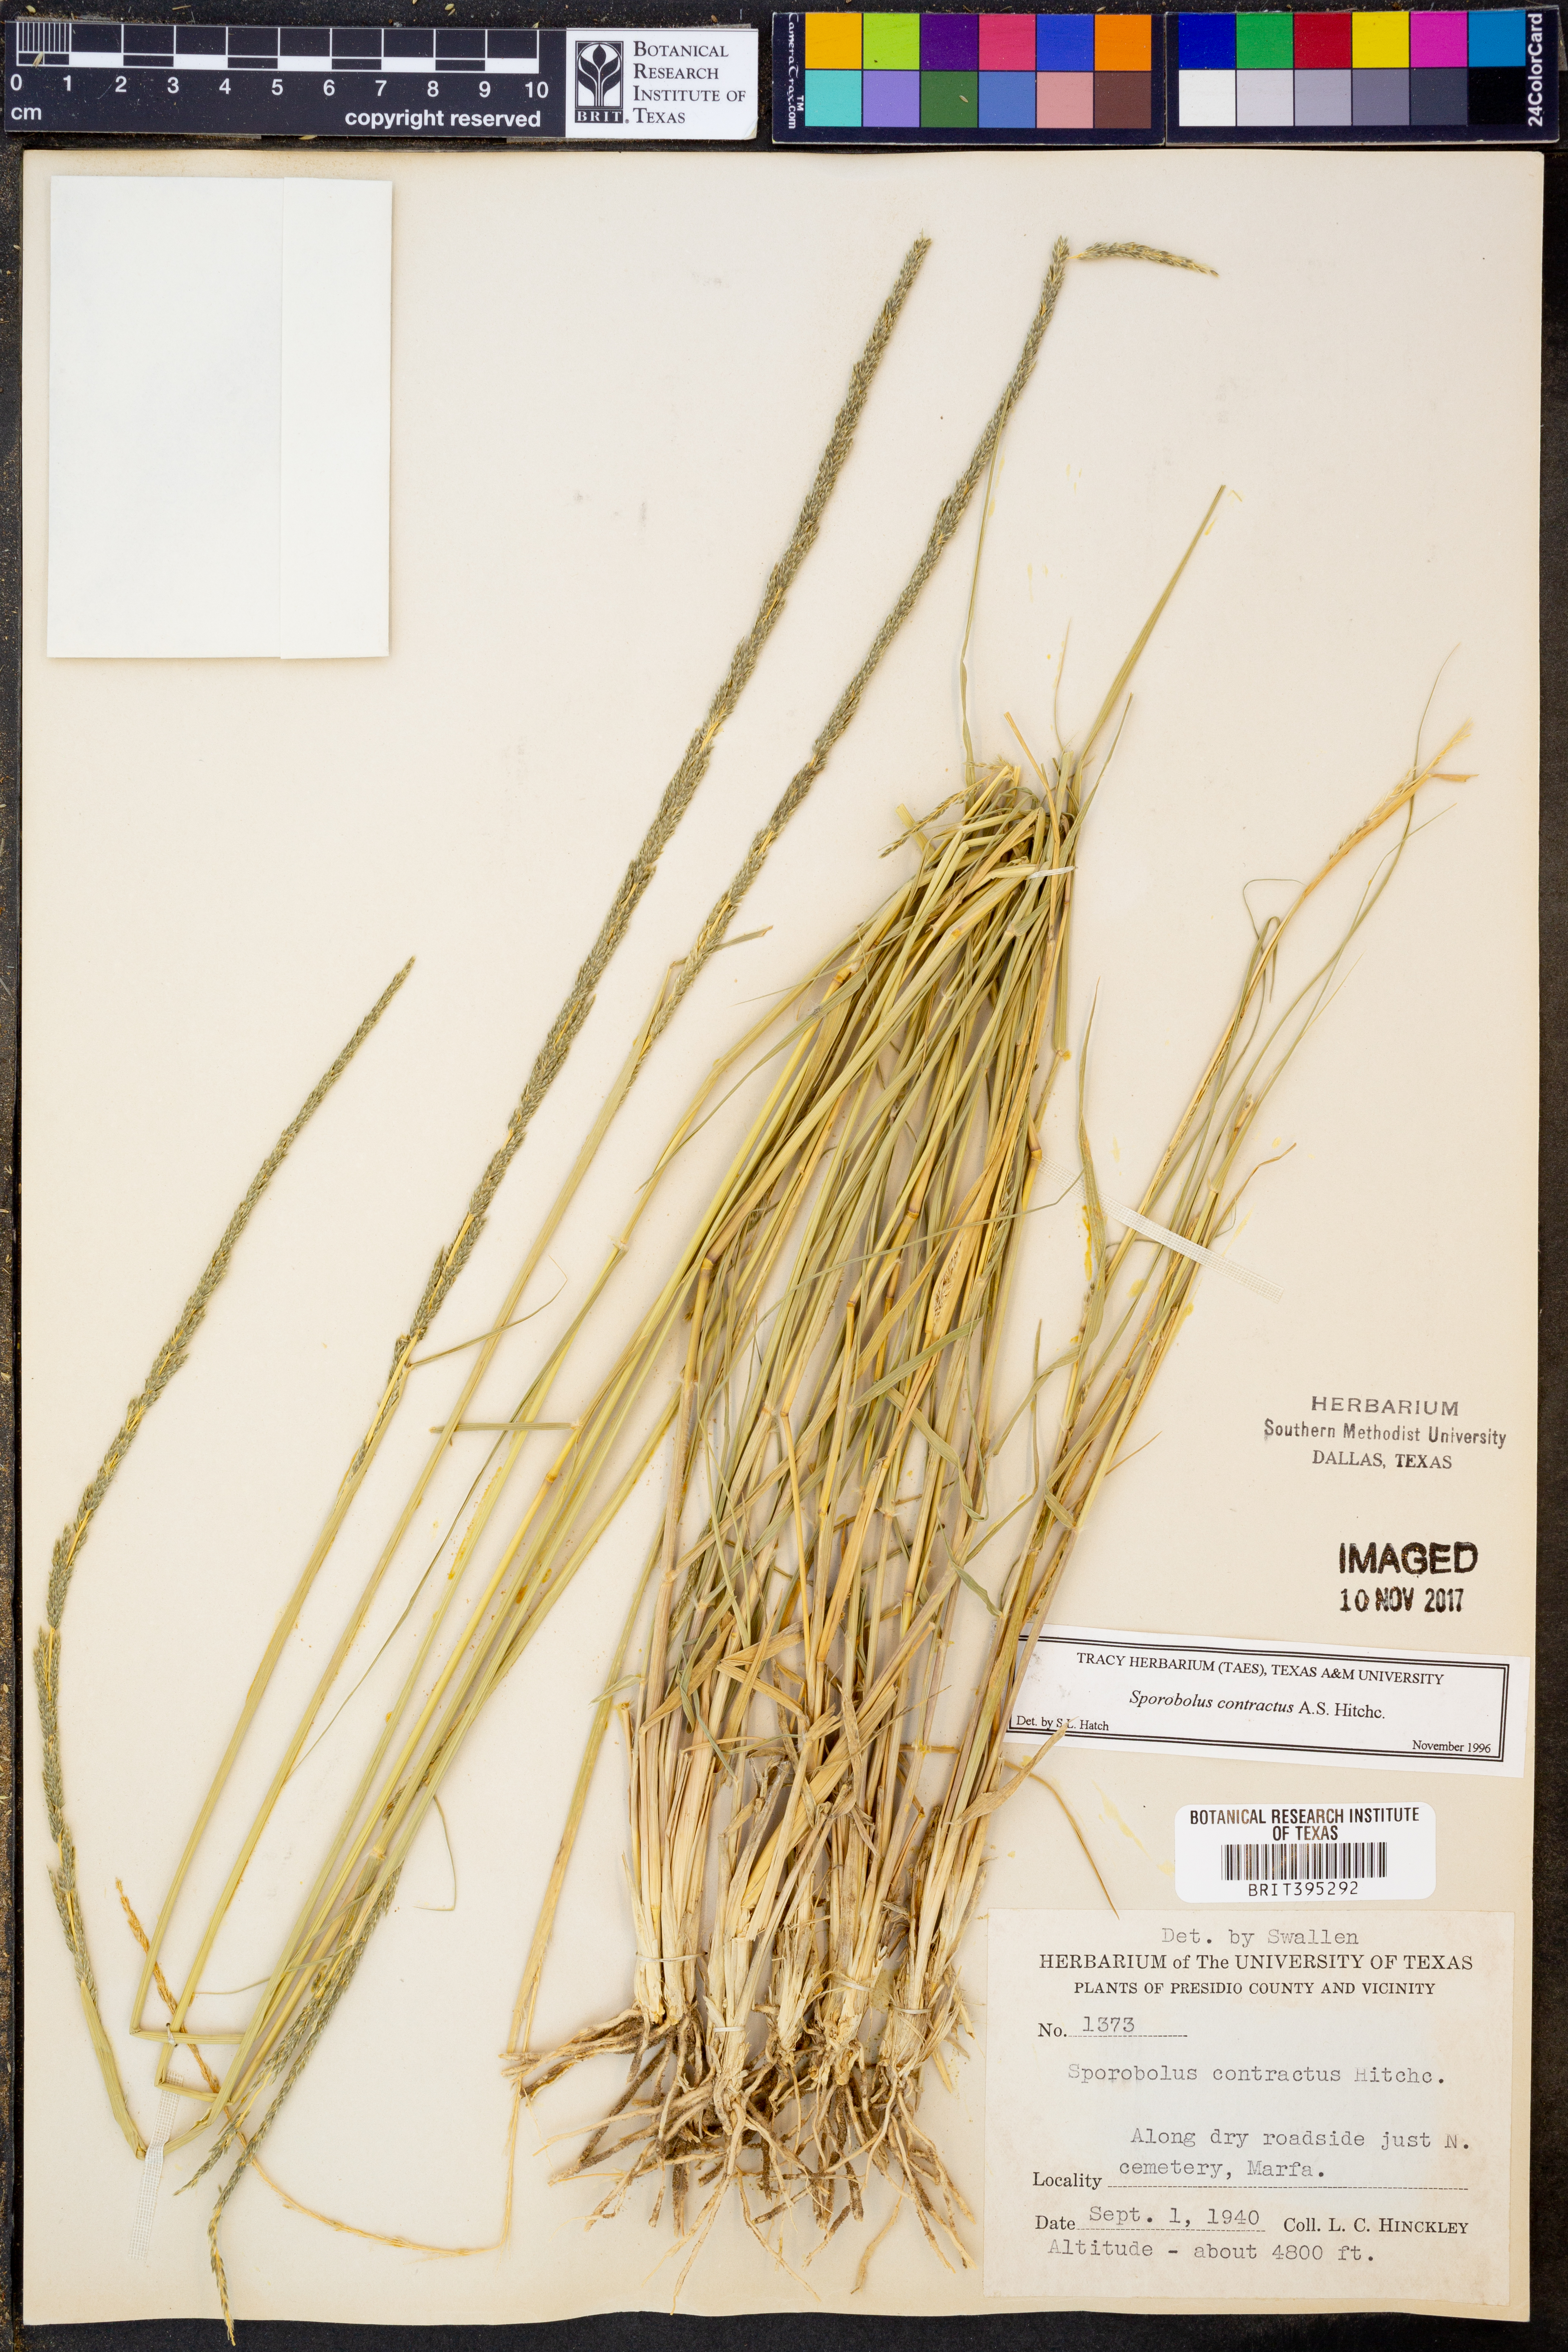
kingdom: Plantae
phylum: Tracheophyta
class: Liliopsida
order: Poales
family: Poaceae
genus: Sporobolus
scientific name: Sporobolus contractus
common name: Spike dropseed
